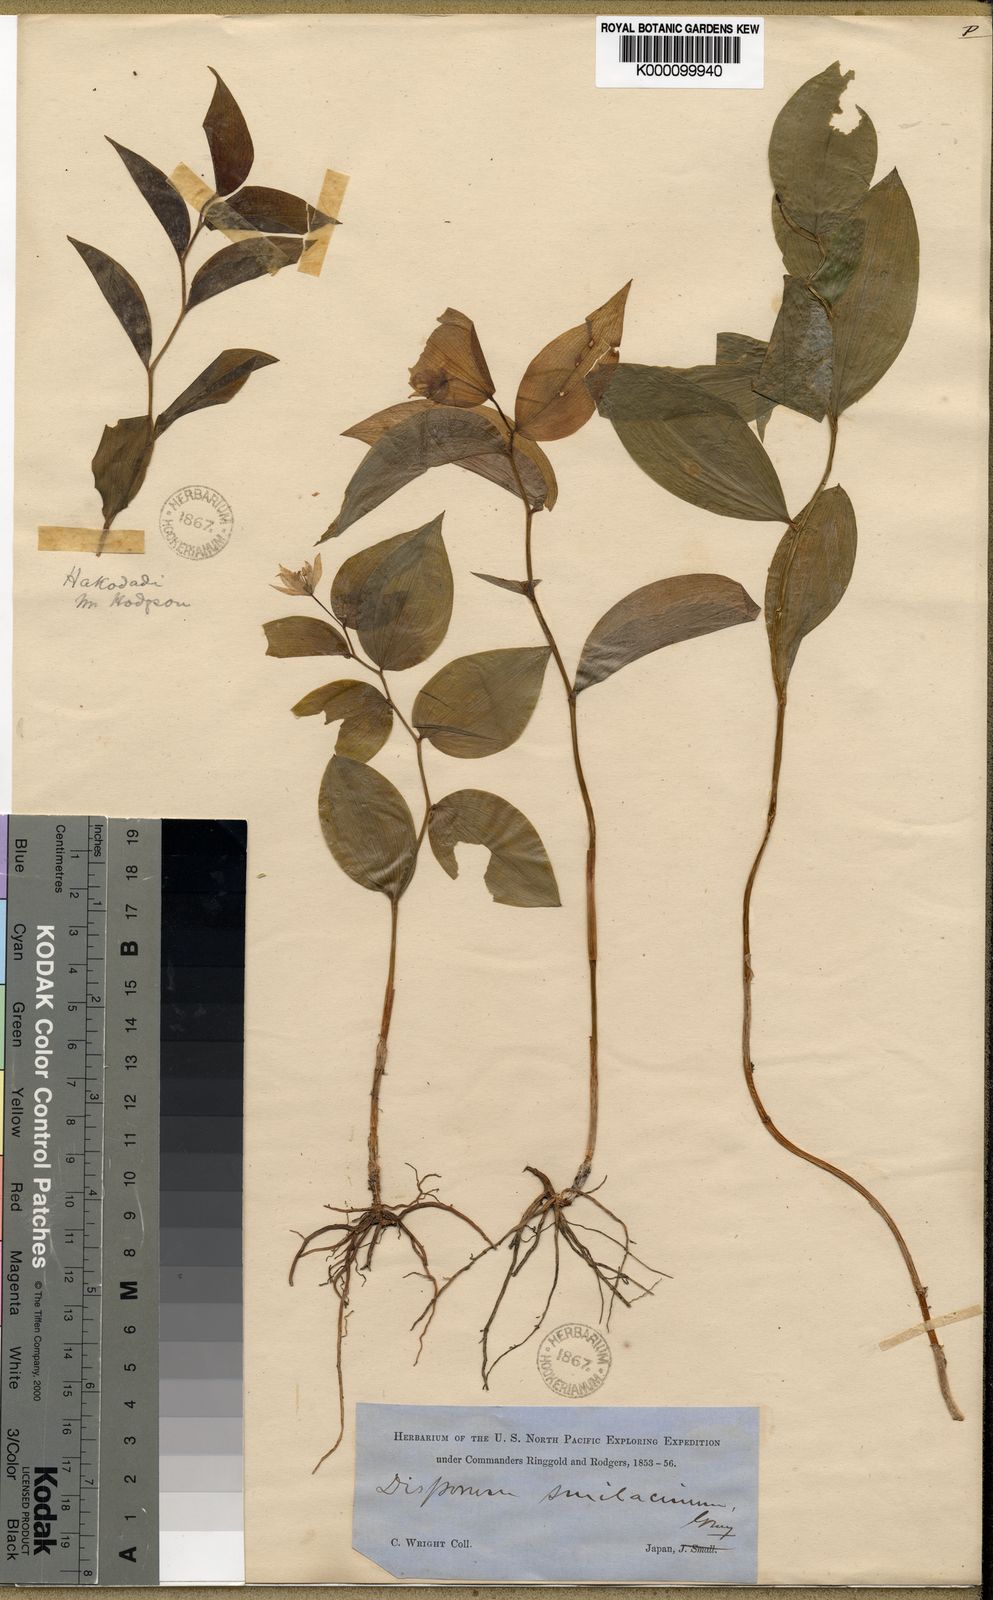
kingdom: Plantae
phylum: Tracheophyta
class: Liliopsida
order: Liliales
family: Colchicaceae
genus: Disporum
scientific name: Disporum smilacinum
